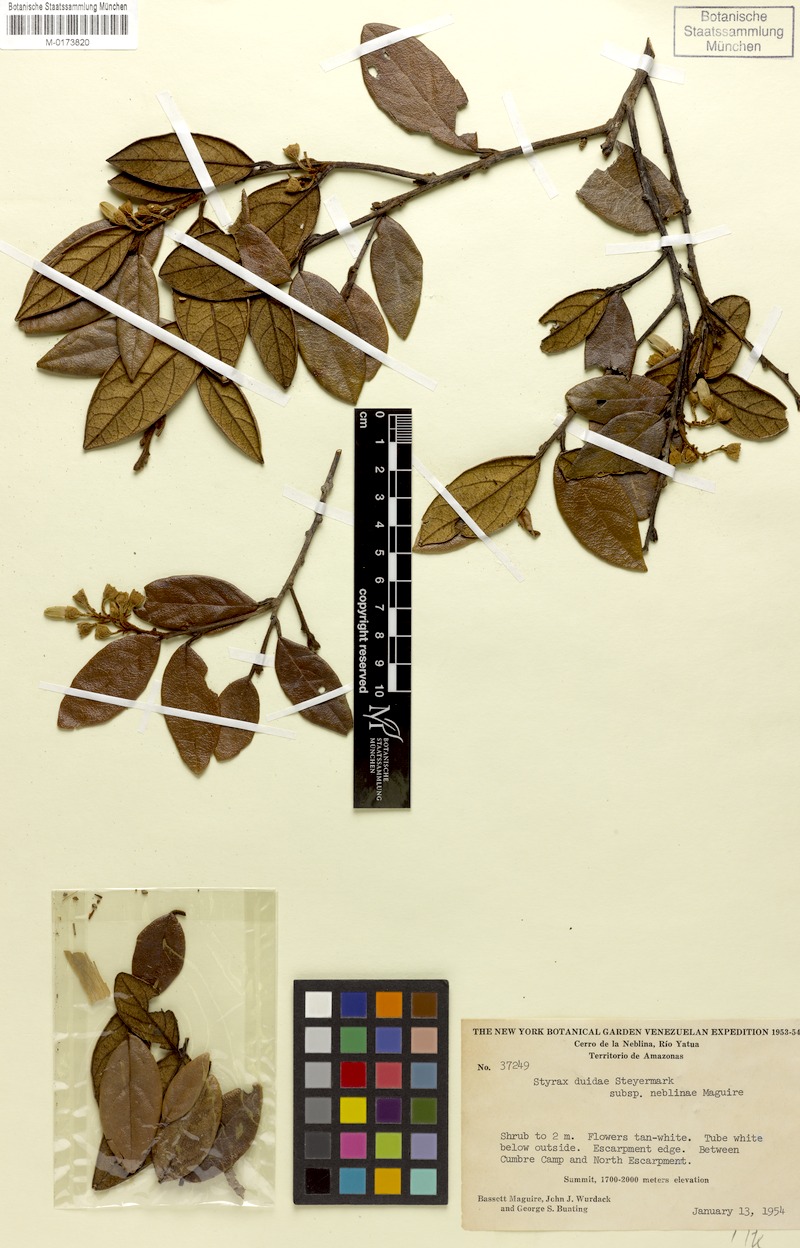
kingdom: Plantae
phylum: Tracheophyta
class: Magnoliopsida
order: Ericales
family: Styracaceae
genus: Styrax
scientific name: Styrax neblinae
